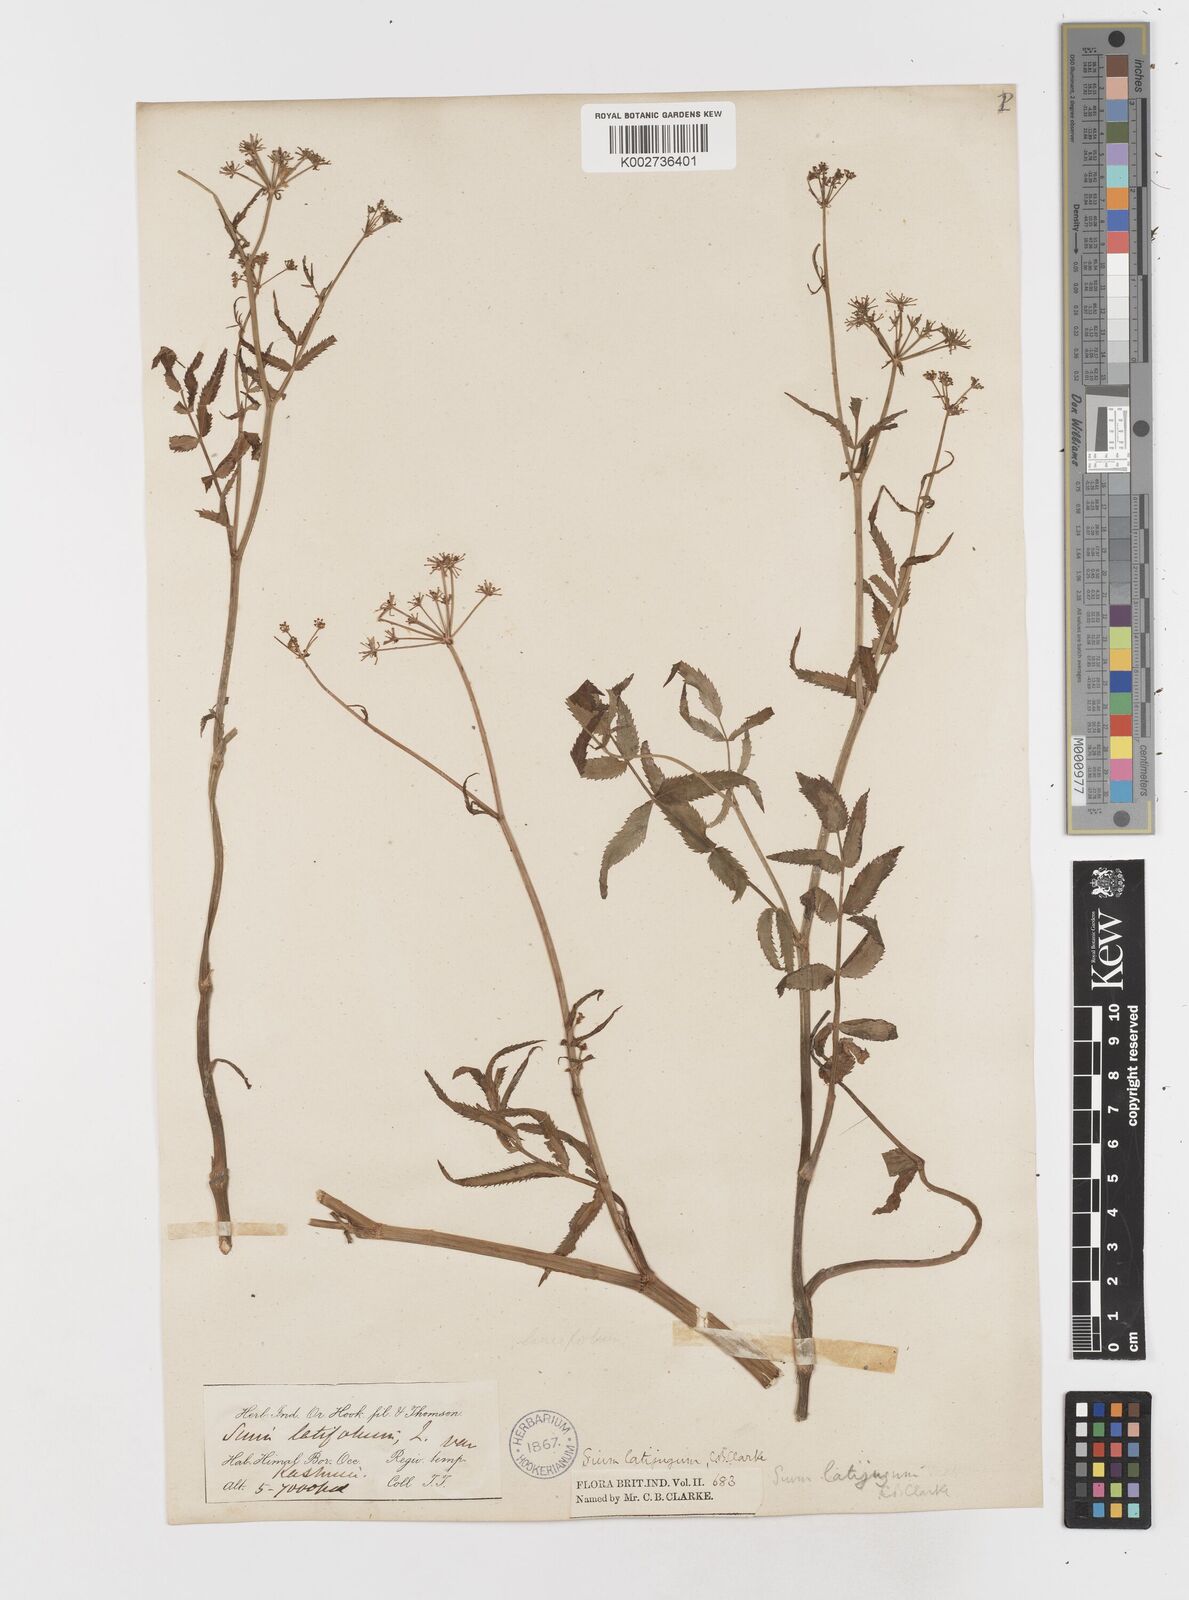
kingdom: Plantae
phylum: Tracheophyta
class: Magnoliopsida
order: Apiales
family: Apiaceae
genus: Sium
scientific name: Sium sisarum
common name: Skirret
